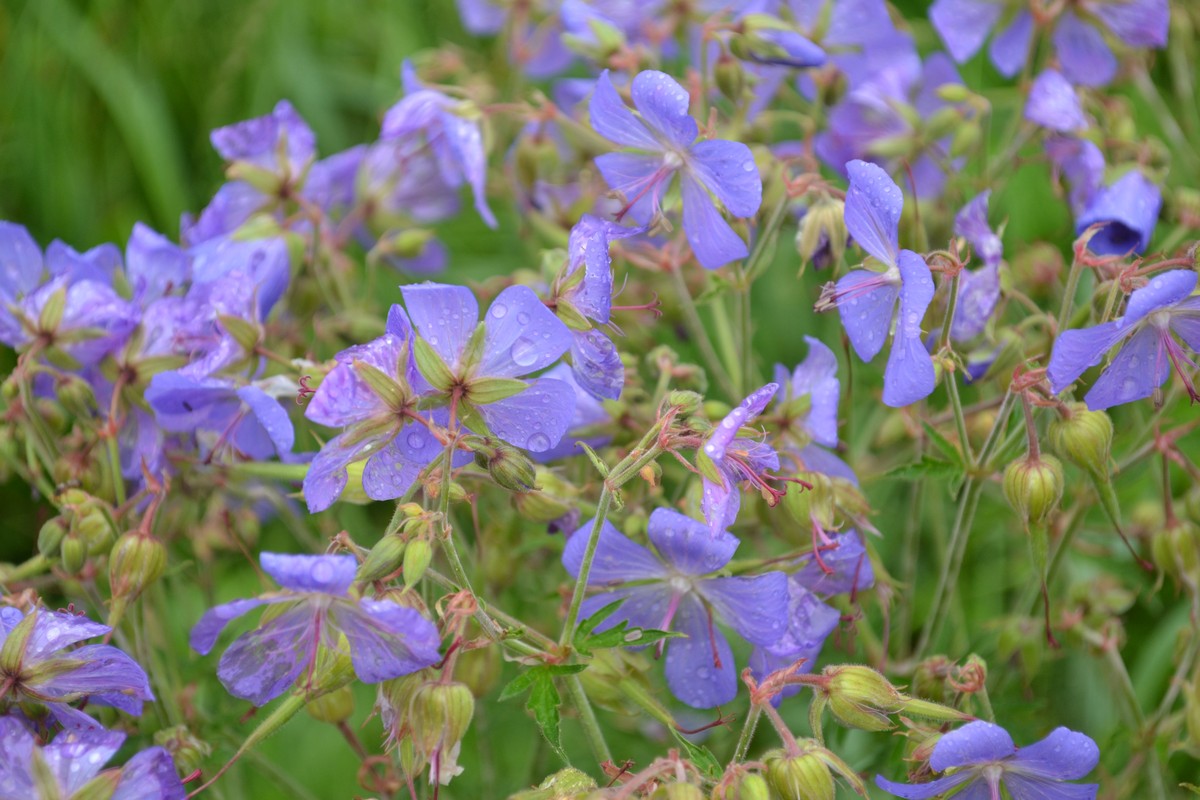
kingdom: Plantae
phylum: Tracheophyta
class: Magnoliopsida
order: Geraniales
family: Geraniaceae
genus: Geranium
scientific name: Geranium pratense
